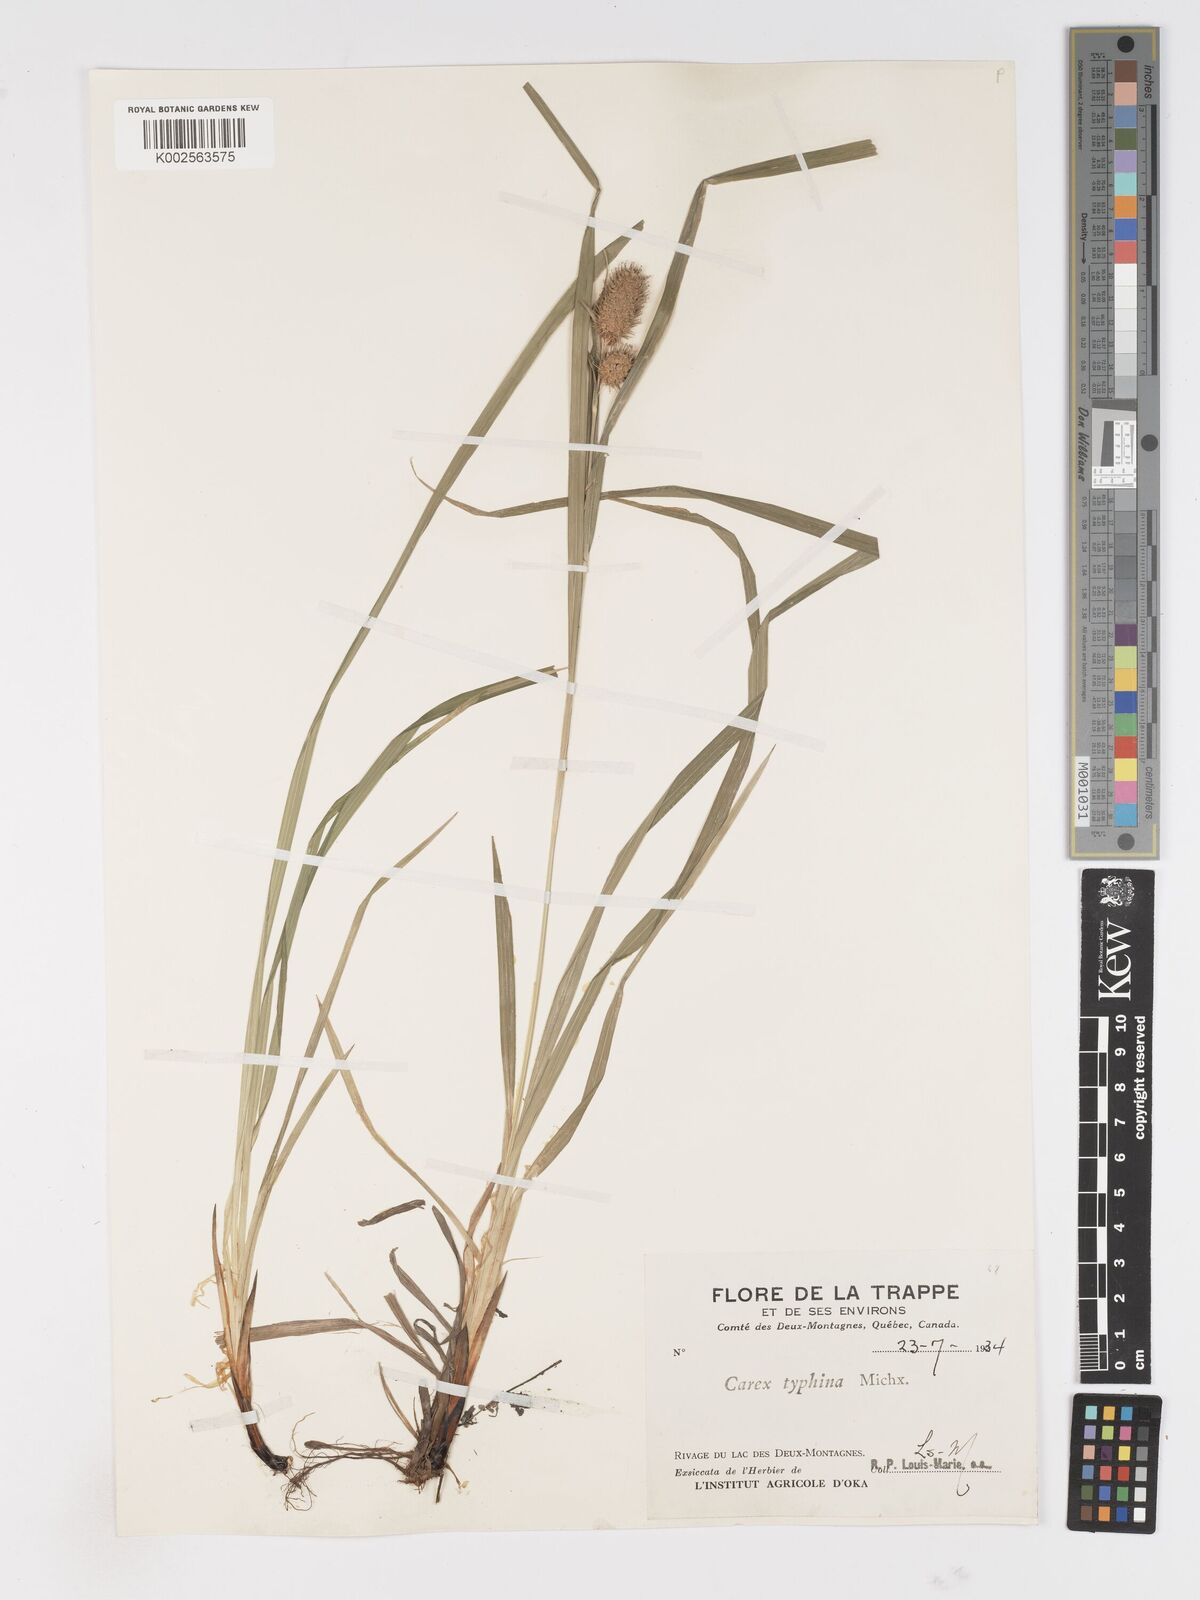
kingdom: Plantae
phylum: Tracheophyta
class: Liliopsida
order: Poales
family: Cyperaceae
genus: Carex
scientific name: Carex typhina
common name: Cattail sedge
